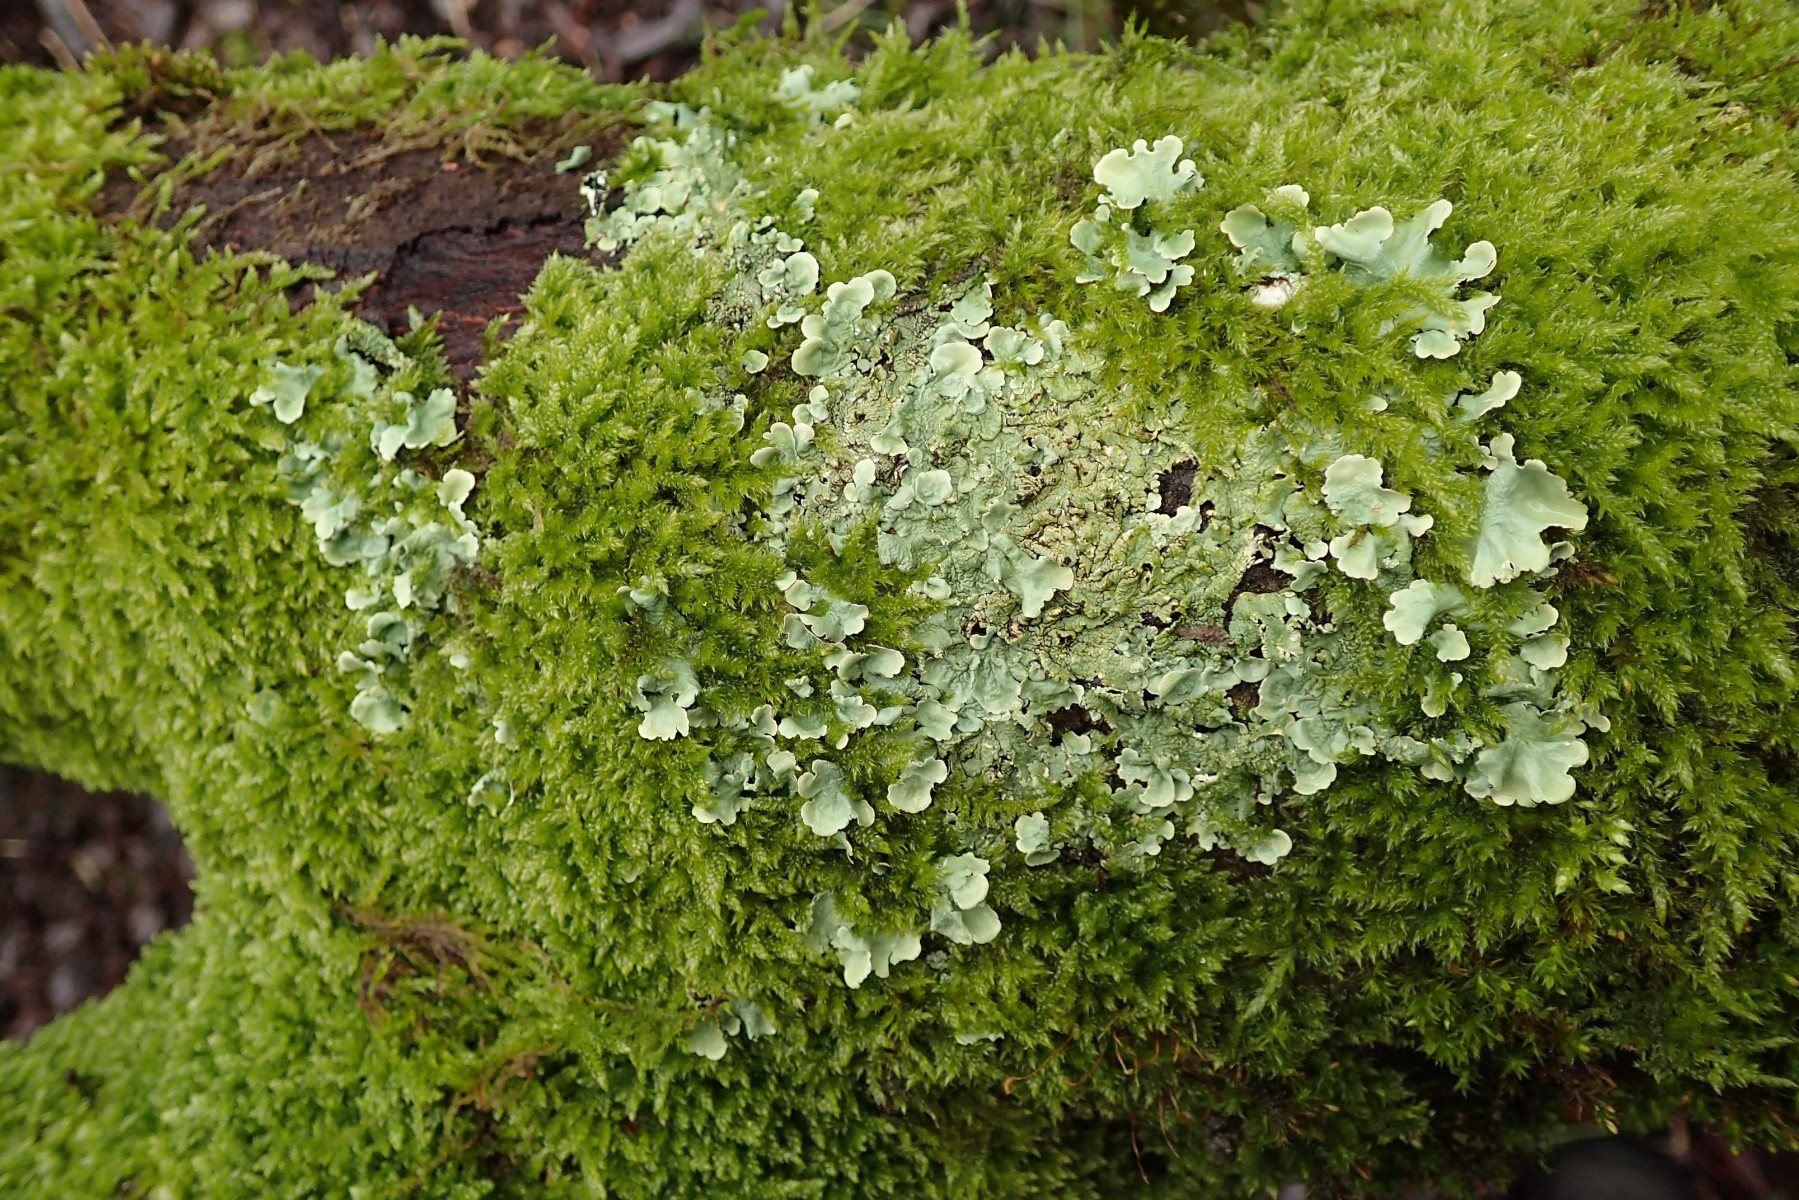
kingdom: Fungi
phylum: Ascomycota
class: Lecanoromycetes
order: Lecanorales
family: Parmeliaceae
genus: Flavoparmelia
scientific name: Flavoparmelia caperata
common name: gulgrøn skållav
